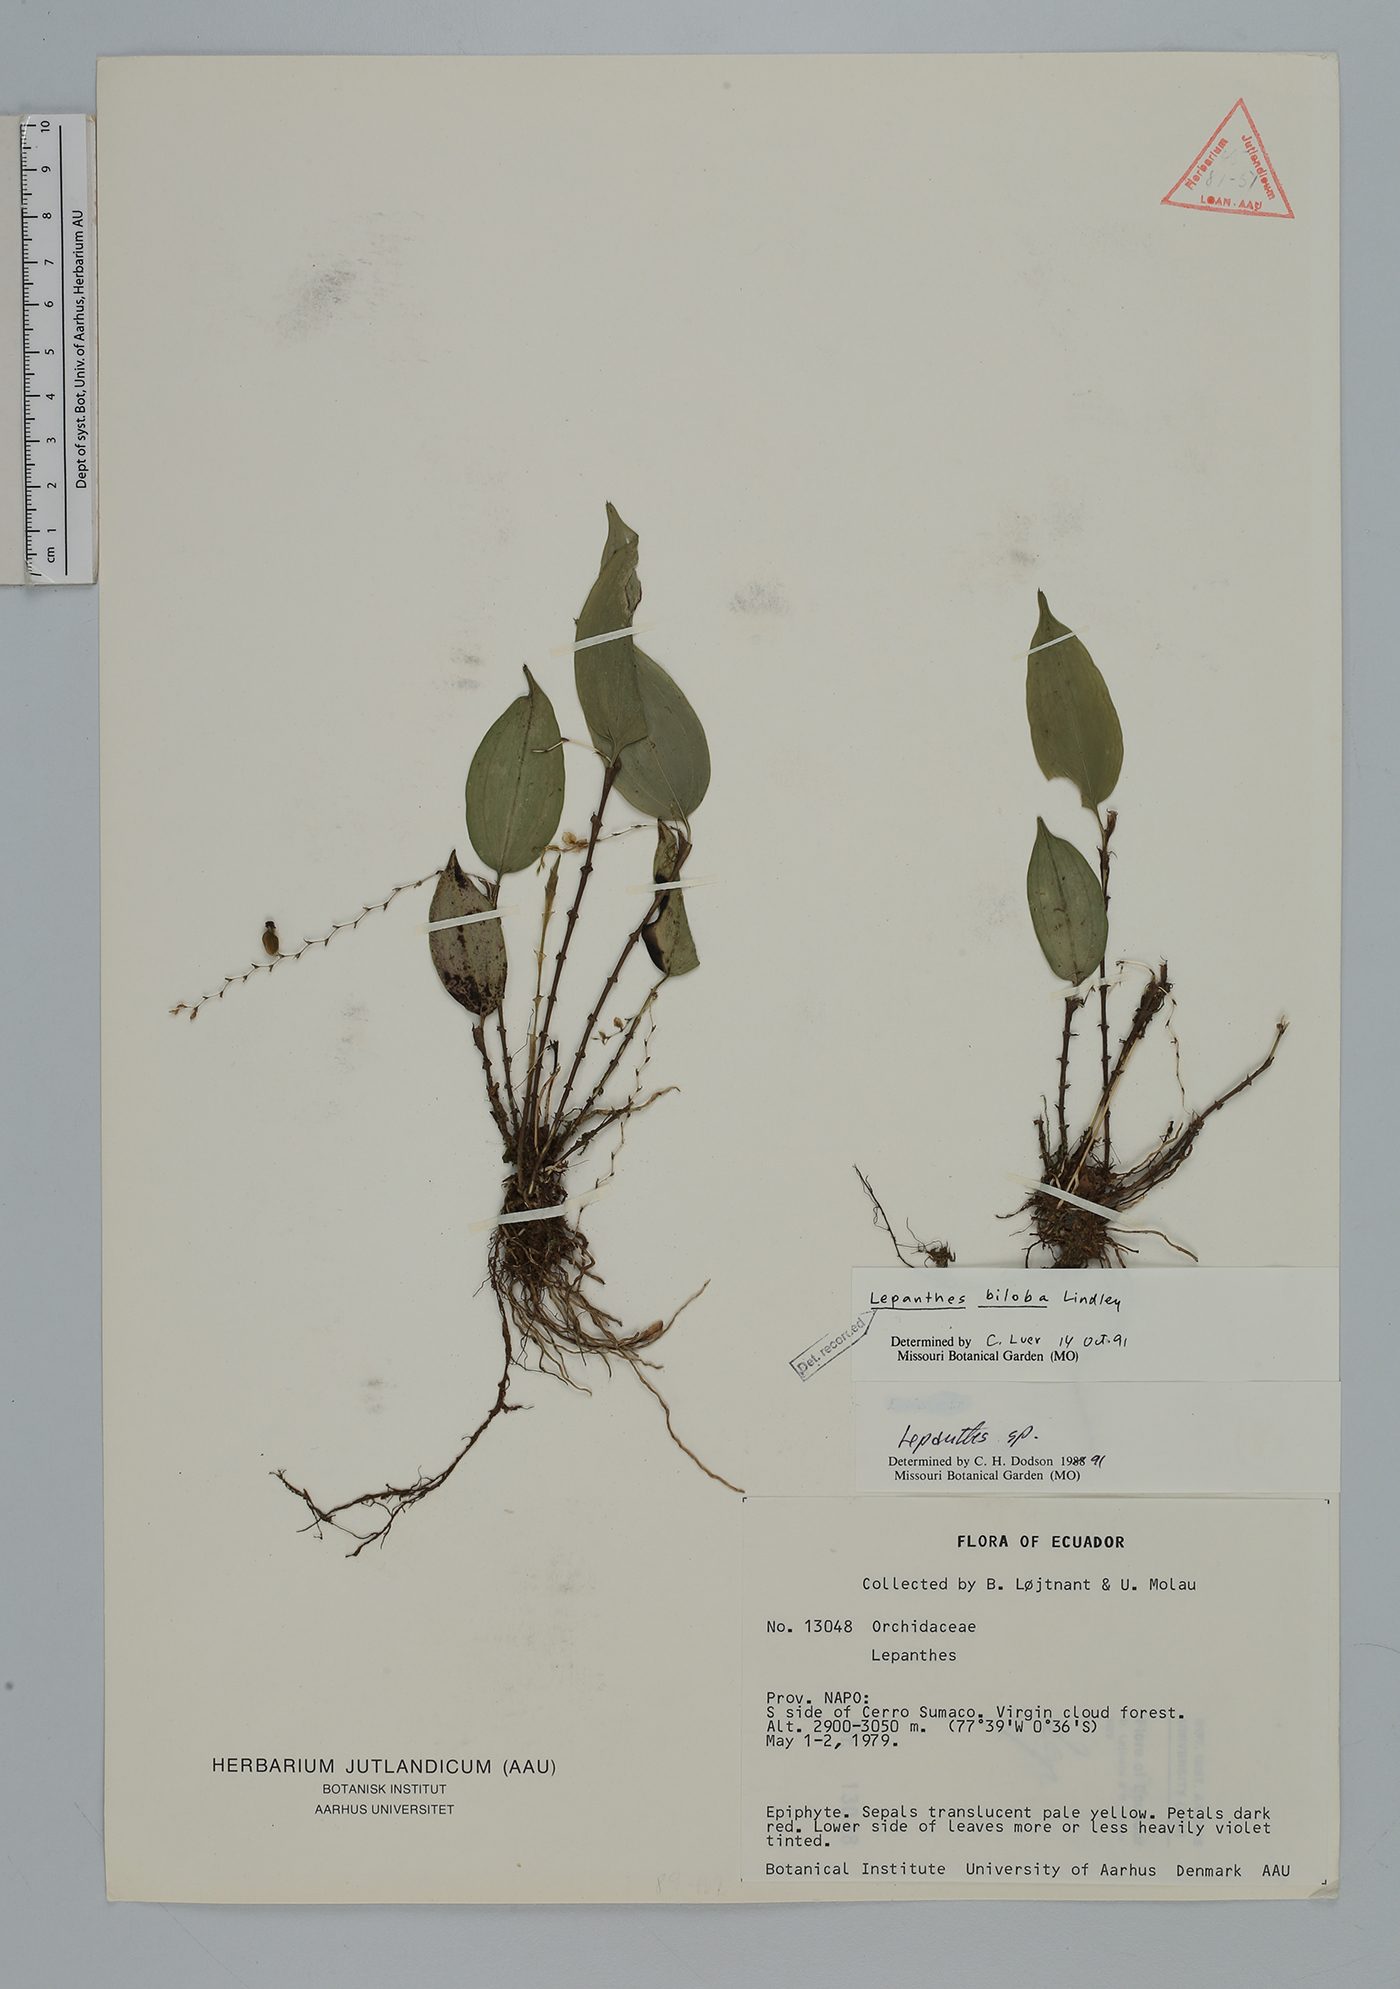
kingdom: Plantae
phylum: Tracheophyta
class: Liliopsida
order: Asparagales
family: Orchidaceae
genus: Lepanthes
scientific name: Lepanthes biloba
